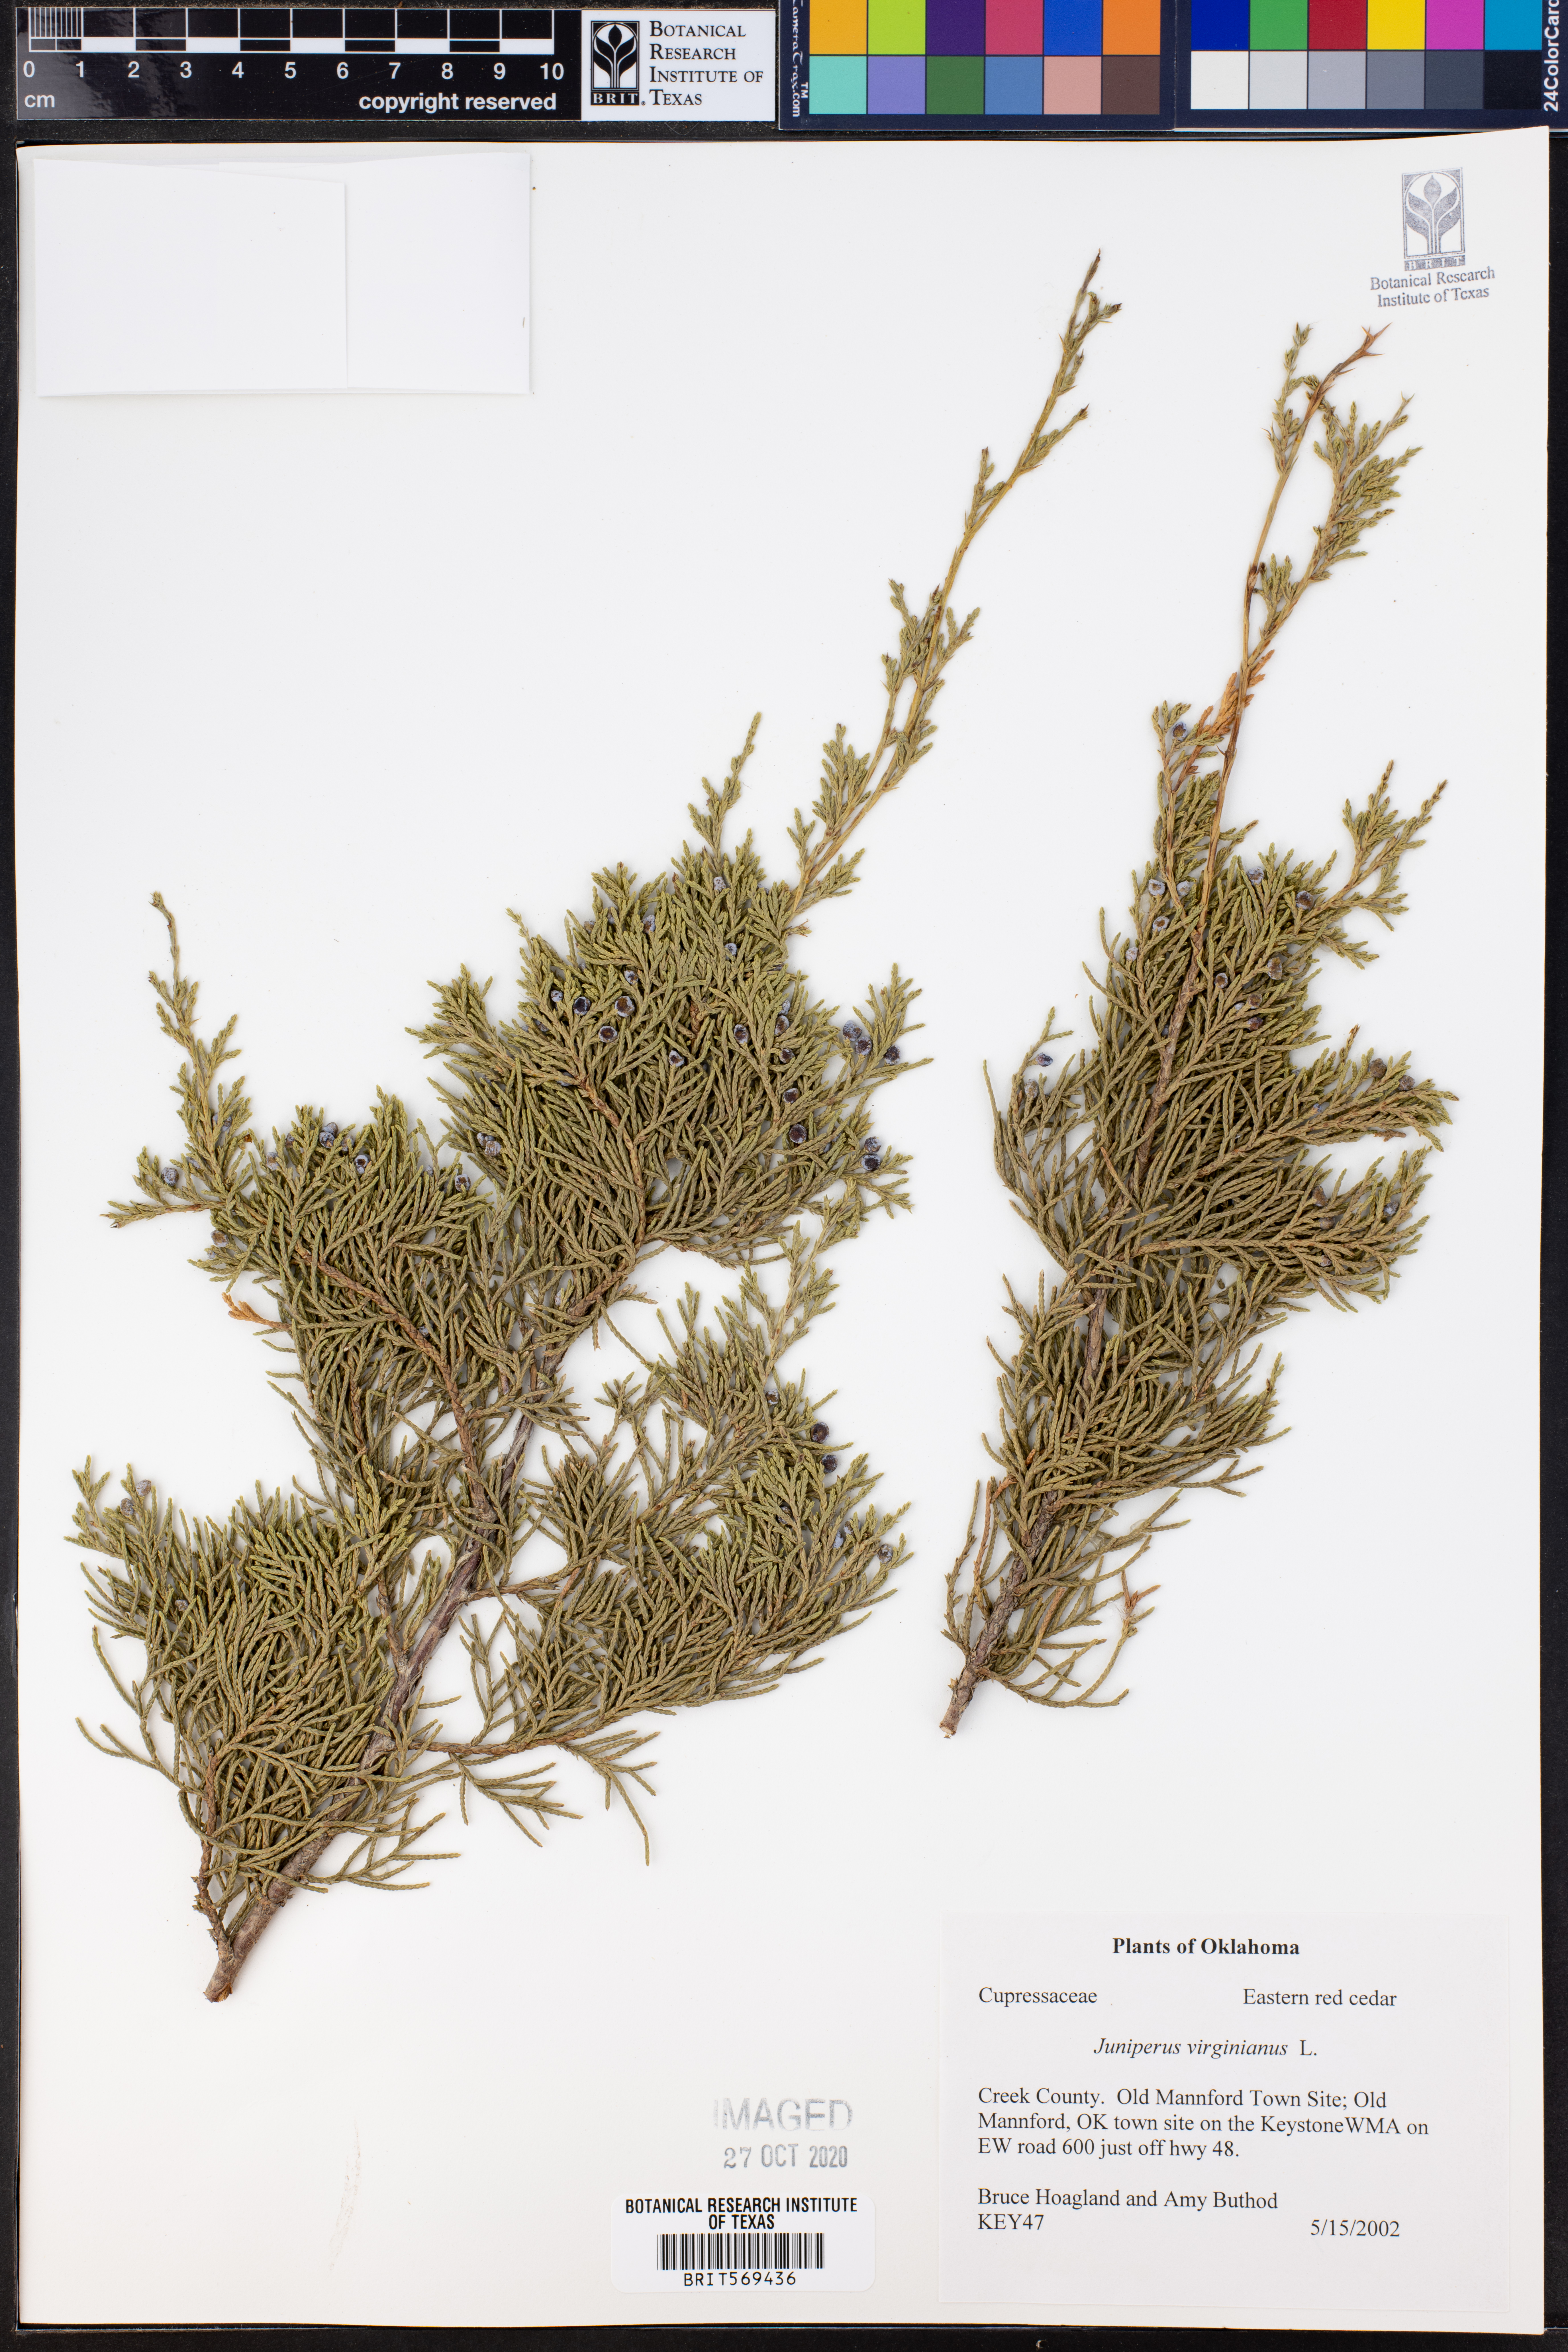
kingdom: Plantae
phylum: Tracheophyta
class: Pinopsida
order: Pinales
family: Cupressaceae
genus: Juniperus
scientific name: Juniperus virginiana
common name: Red juniper
